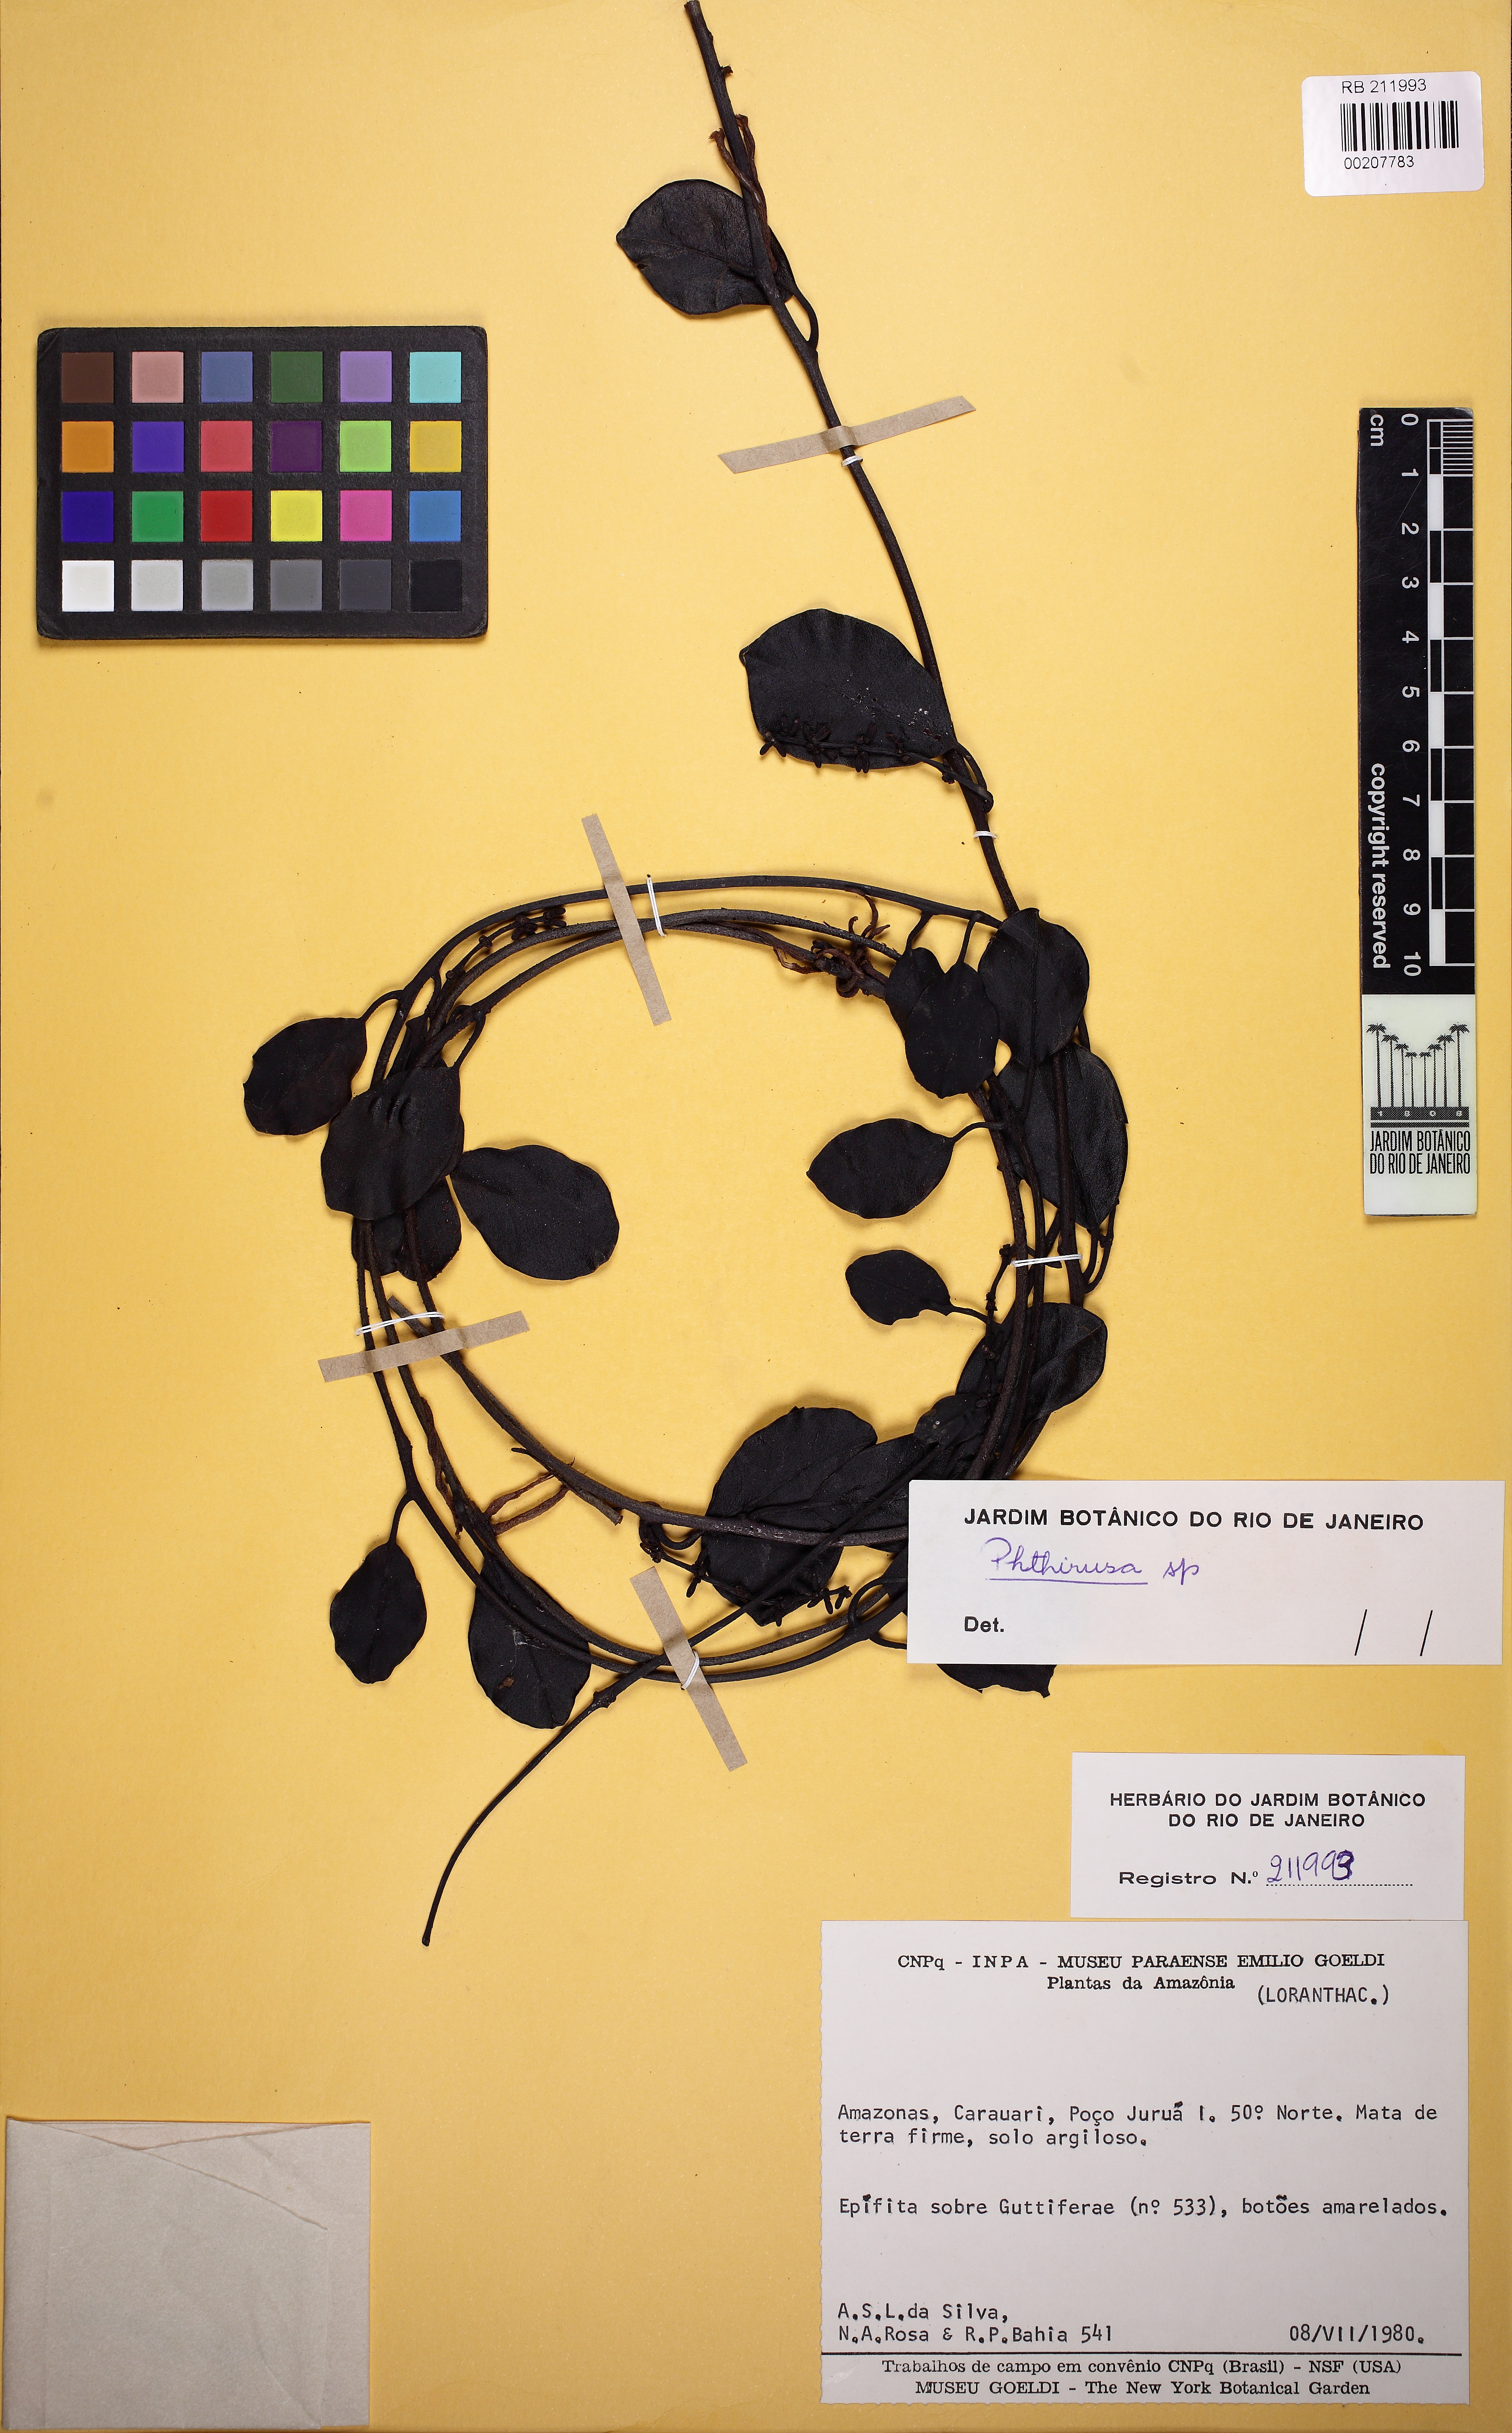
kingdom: Plantae
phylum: Tracheophyta
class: Magnoliopsida
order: Santalales
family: Loranthaceae
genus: Struthanthus
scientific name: Struthanthus
